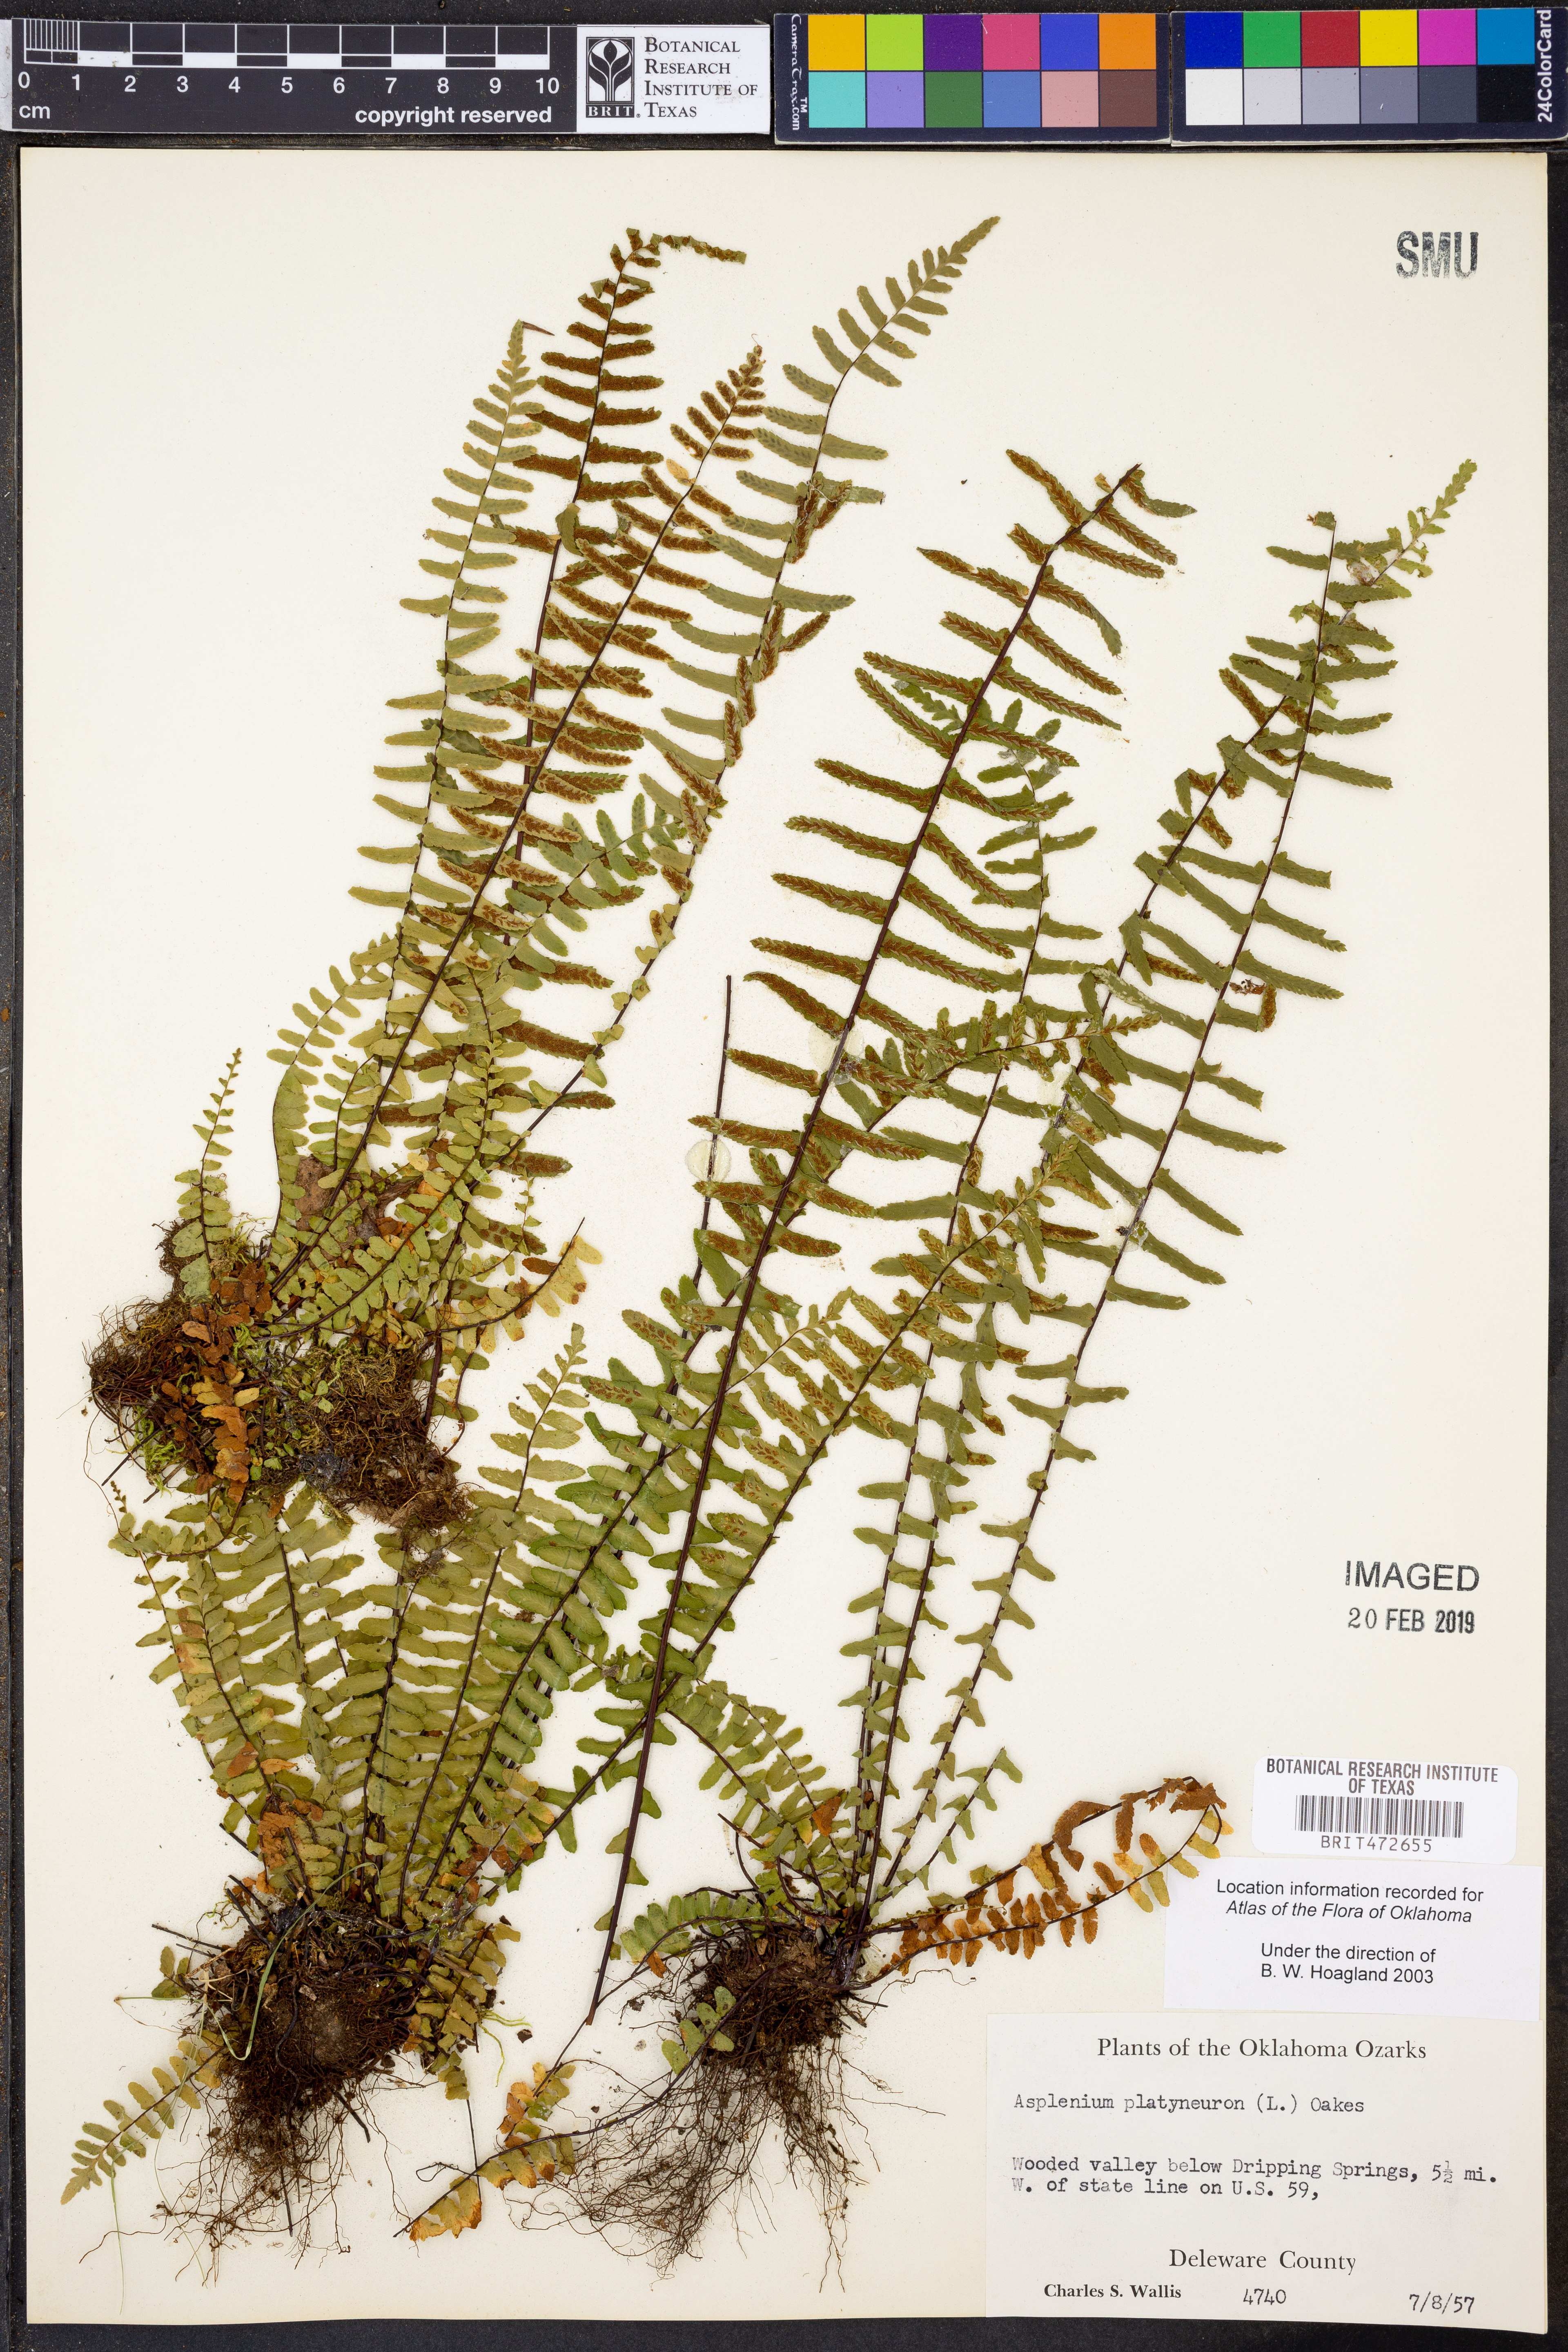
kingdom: Plantae
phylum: Tracheophyta
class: Polypodiopsida
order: Polypodiales
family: Aspleniaceae
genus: Asplenium
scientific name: Asplenium platyneuron
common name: Ebony spleenwort
